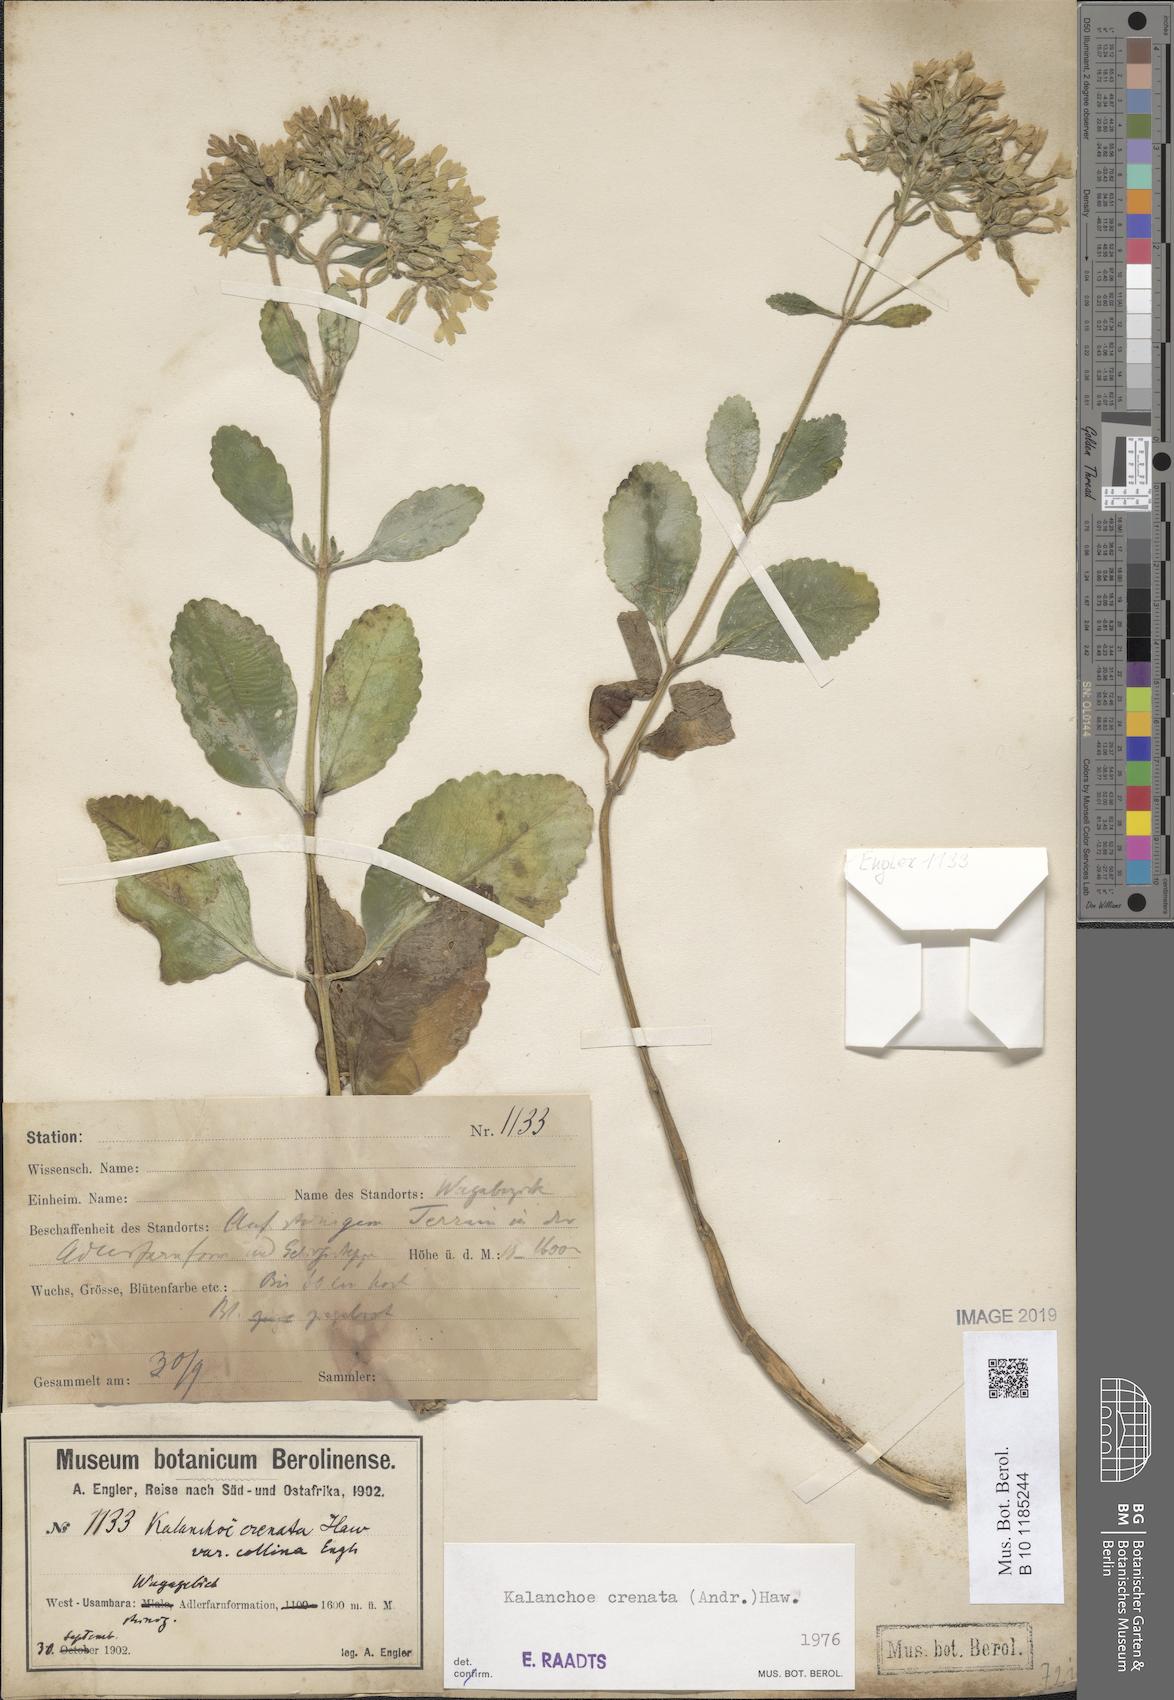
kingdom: Plantae
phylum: Tracheophyta
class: Magnoliopsida
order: Saxifragales
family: Crassulaceae
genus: Kalanchoe
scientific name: Kalanchoe crenata
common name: Neverdie
